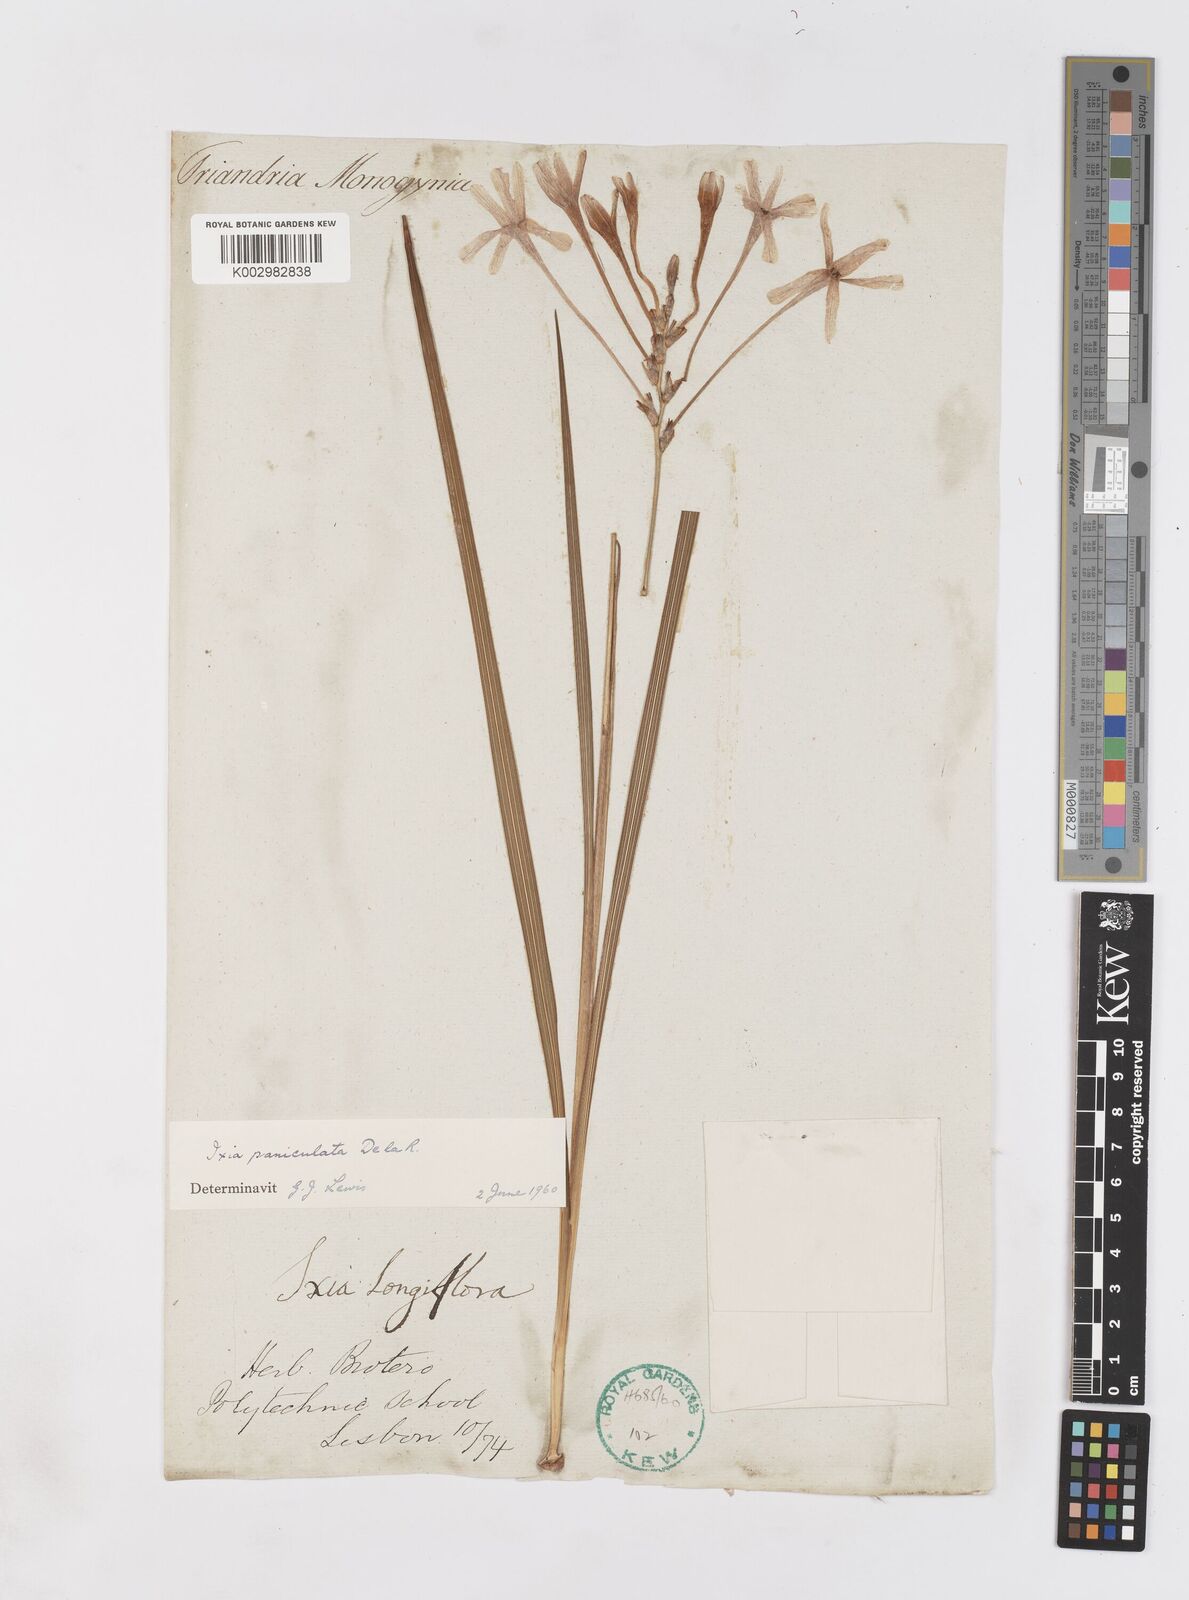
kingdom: Plantae
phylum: Tracheophyta
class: Liliopsida
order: Asparagales
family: Iridaceae
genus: Ixia
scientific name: Ixia paniculata
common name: Tubular corn-lily
